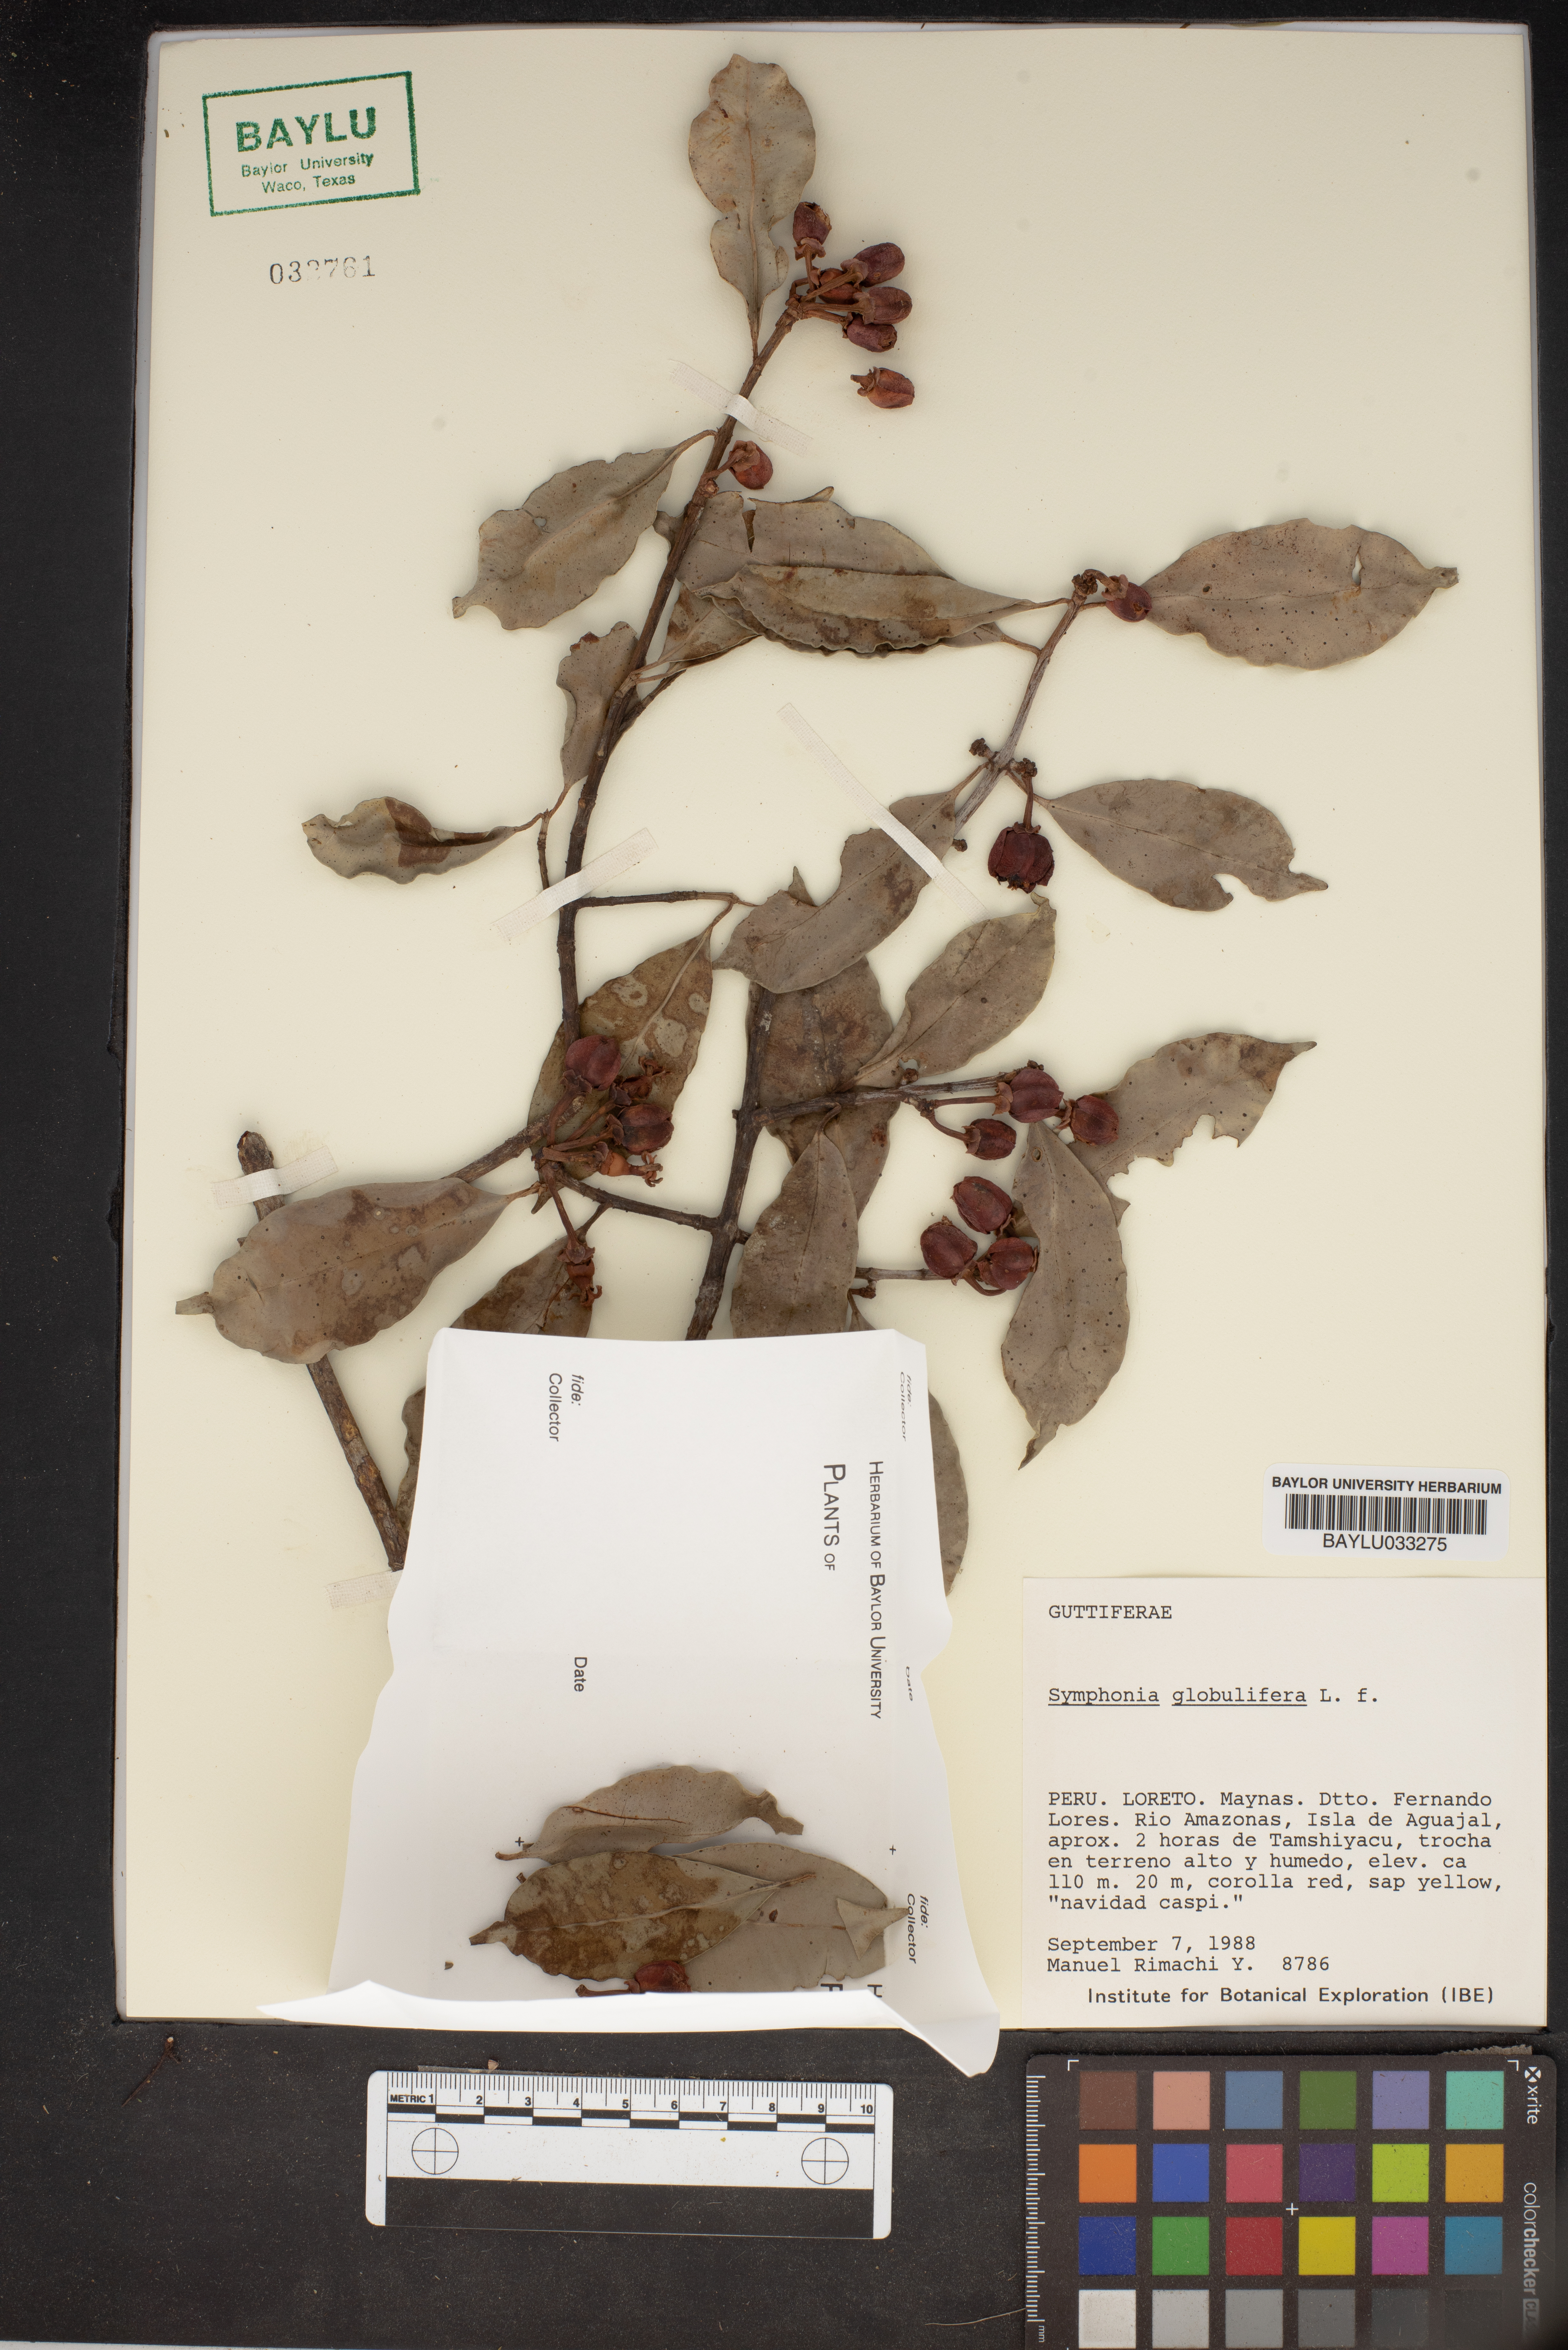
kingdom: Plantae
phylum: Tracheophyta
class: Magnoliopsida
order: Malpighiales
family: Clusiaceae
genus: Symphonia
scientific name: Symphonia globulifera
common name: Boarwood
